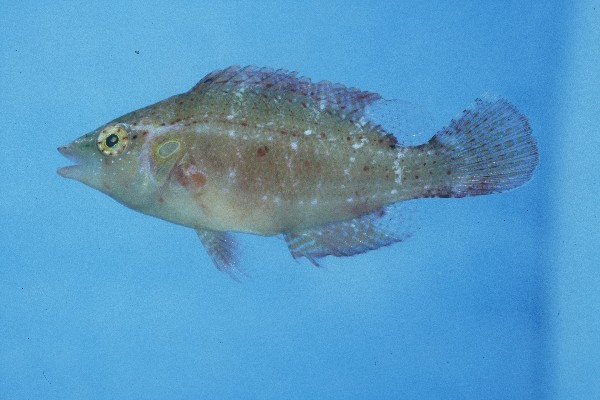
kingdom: Animalia
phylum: Chordata
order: Perciformes
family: Labridae
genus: Pteragogus
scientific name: Pteragogus variabilis
